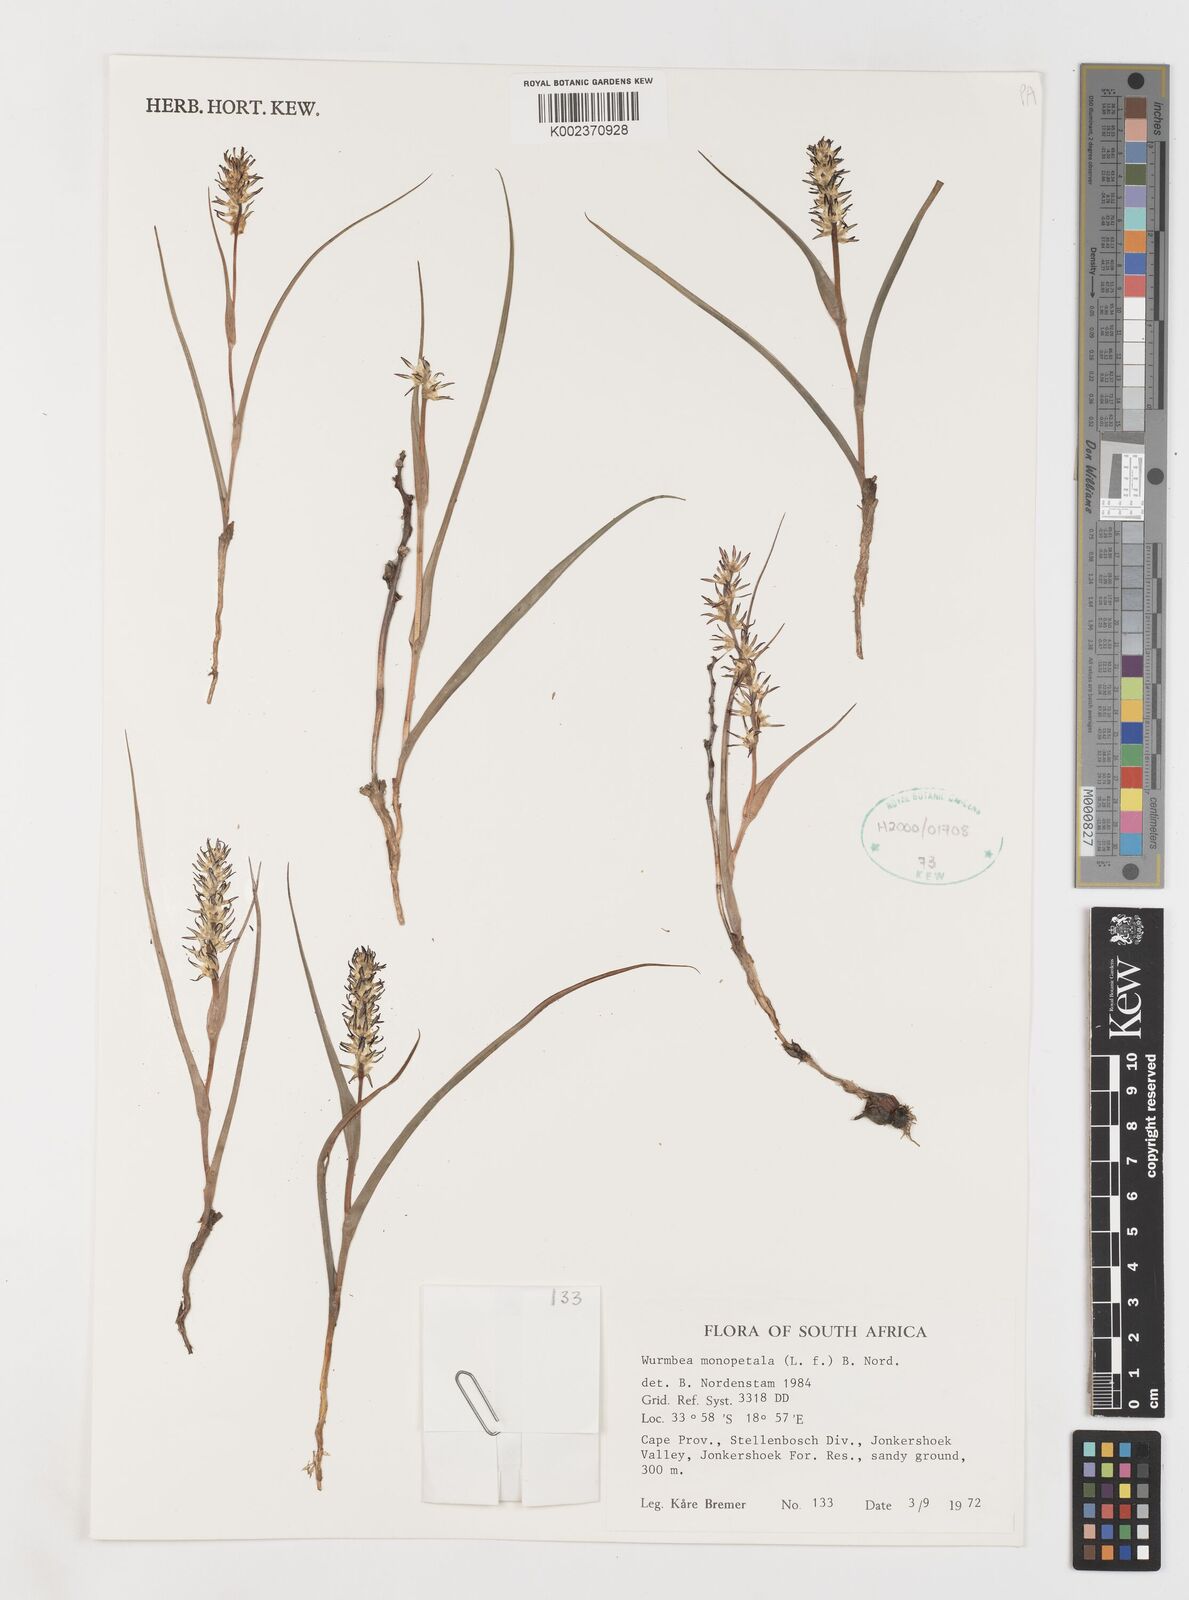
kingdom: Plantae
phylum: Tracheophyta
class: Liliopsida
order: Liliales
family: Colchicaceae
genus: Wurmbea
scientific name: Wurmbea monopetala
